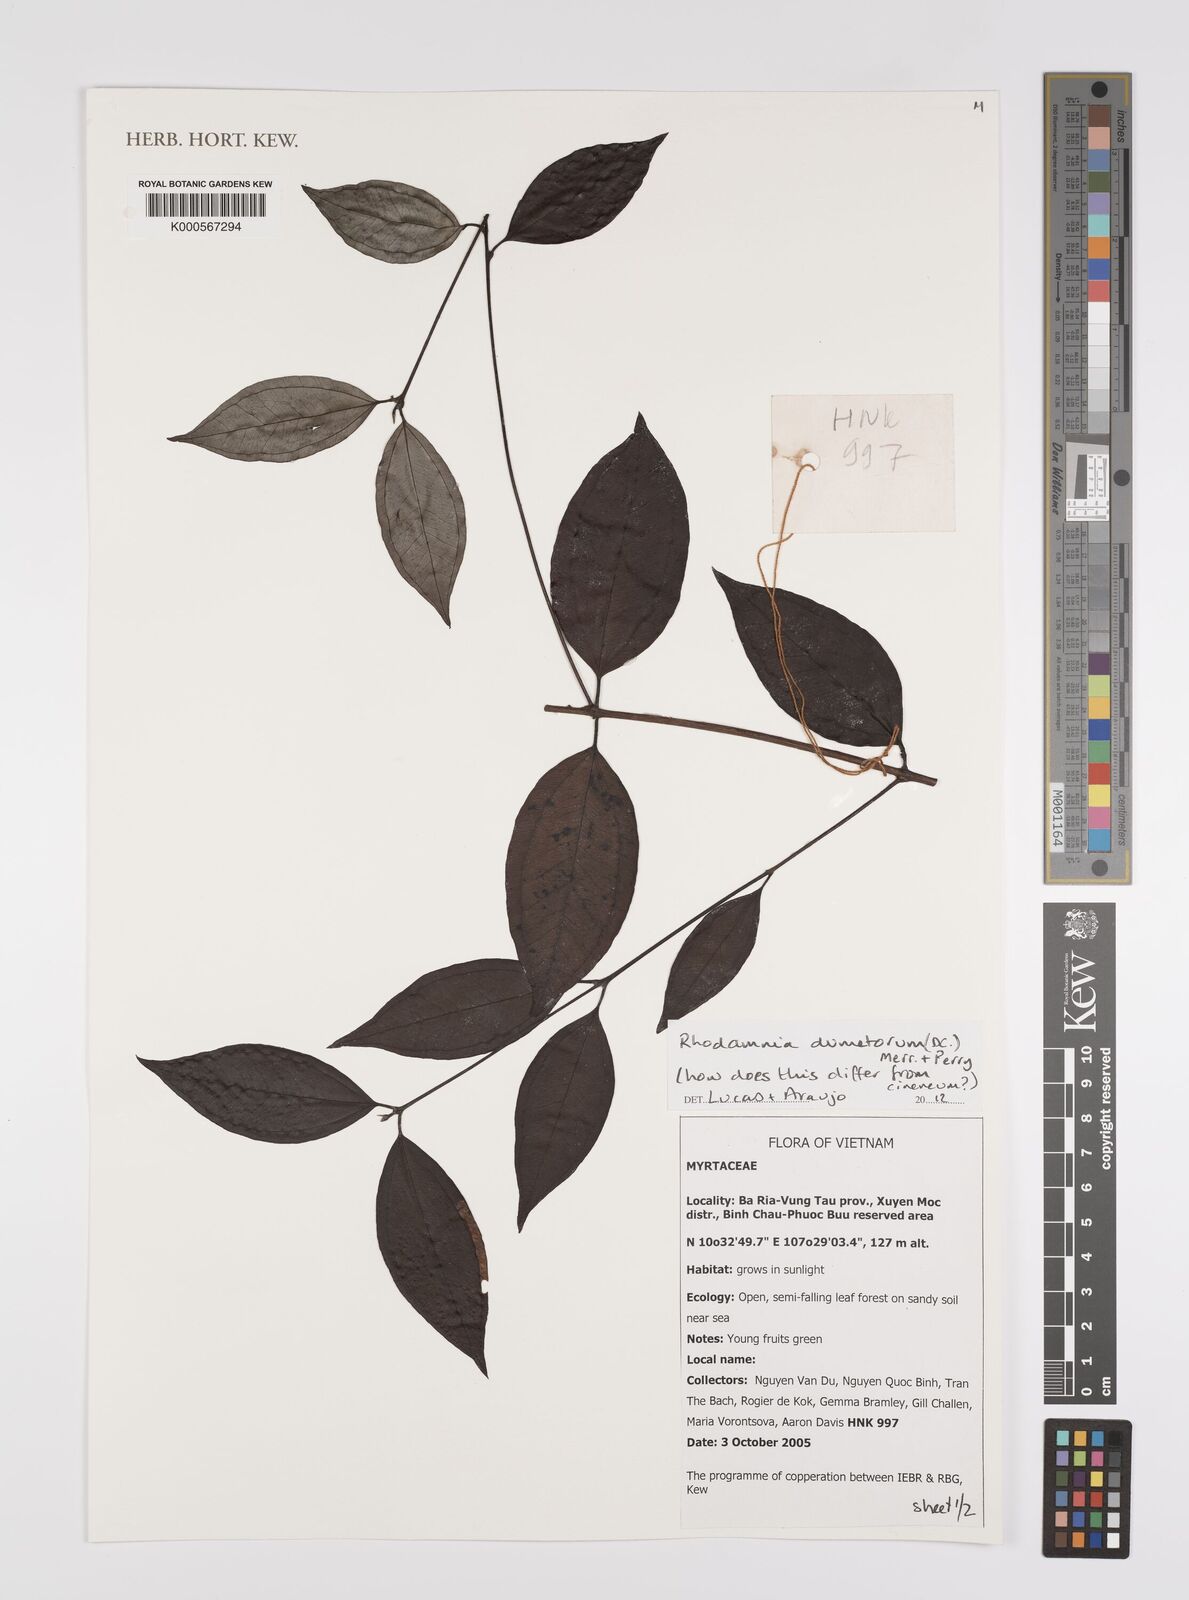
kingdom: Plantae
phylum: Tracheophyta
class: Magnoliopsida
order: Myrtales
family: Myrtaceae
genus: Rhodamnia
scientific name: Rhodamnia
